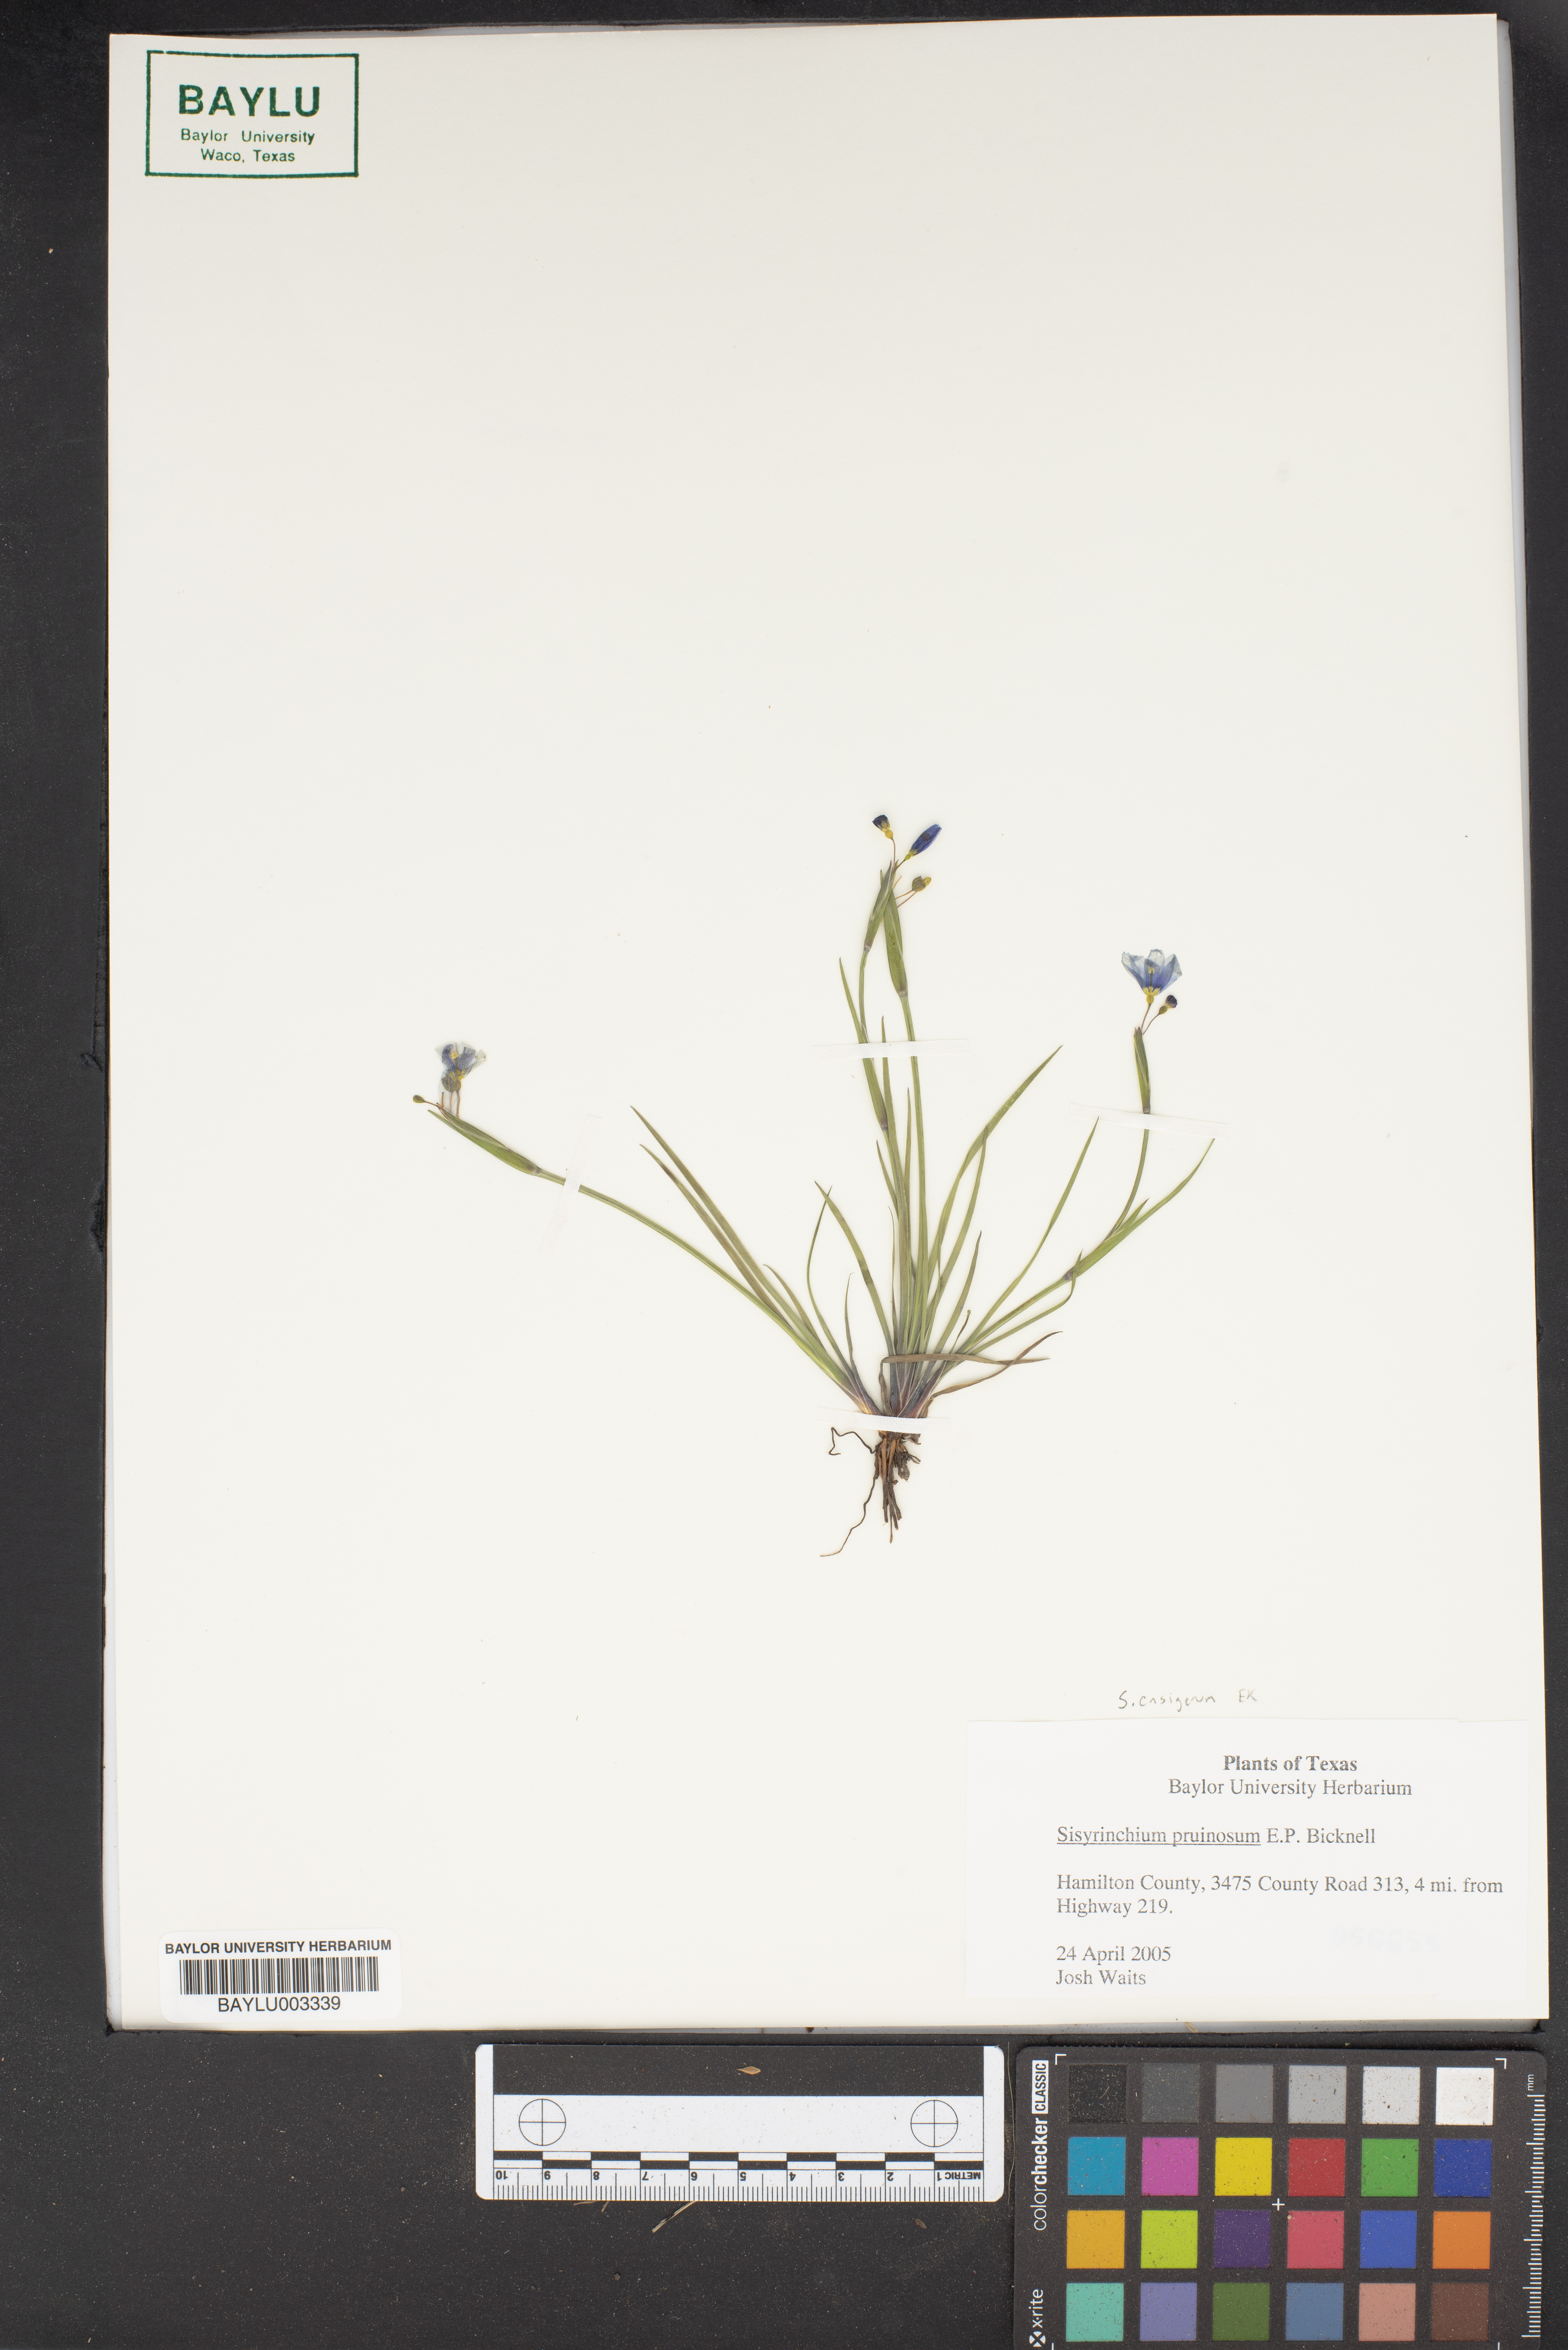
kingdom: Plantae
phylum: Tracheophyta
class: Liliopsida
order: Asparagales
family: Iridaceae
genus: Sisyrinchium
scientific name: Sisyrinchium ensigerum
